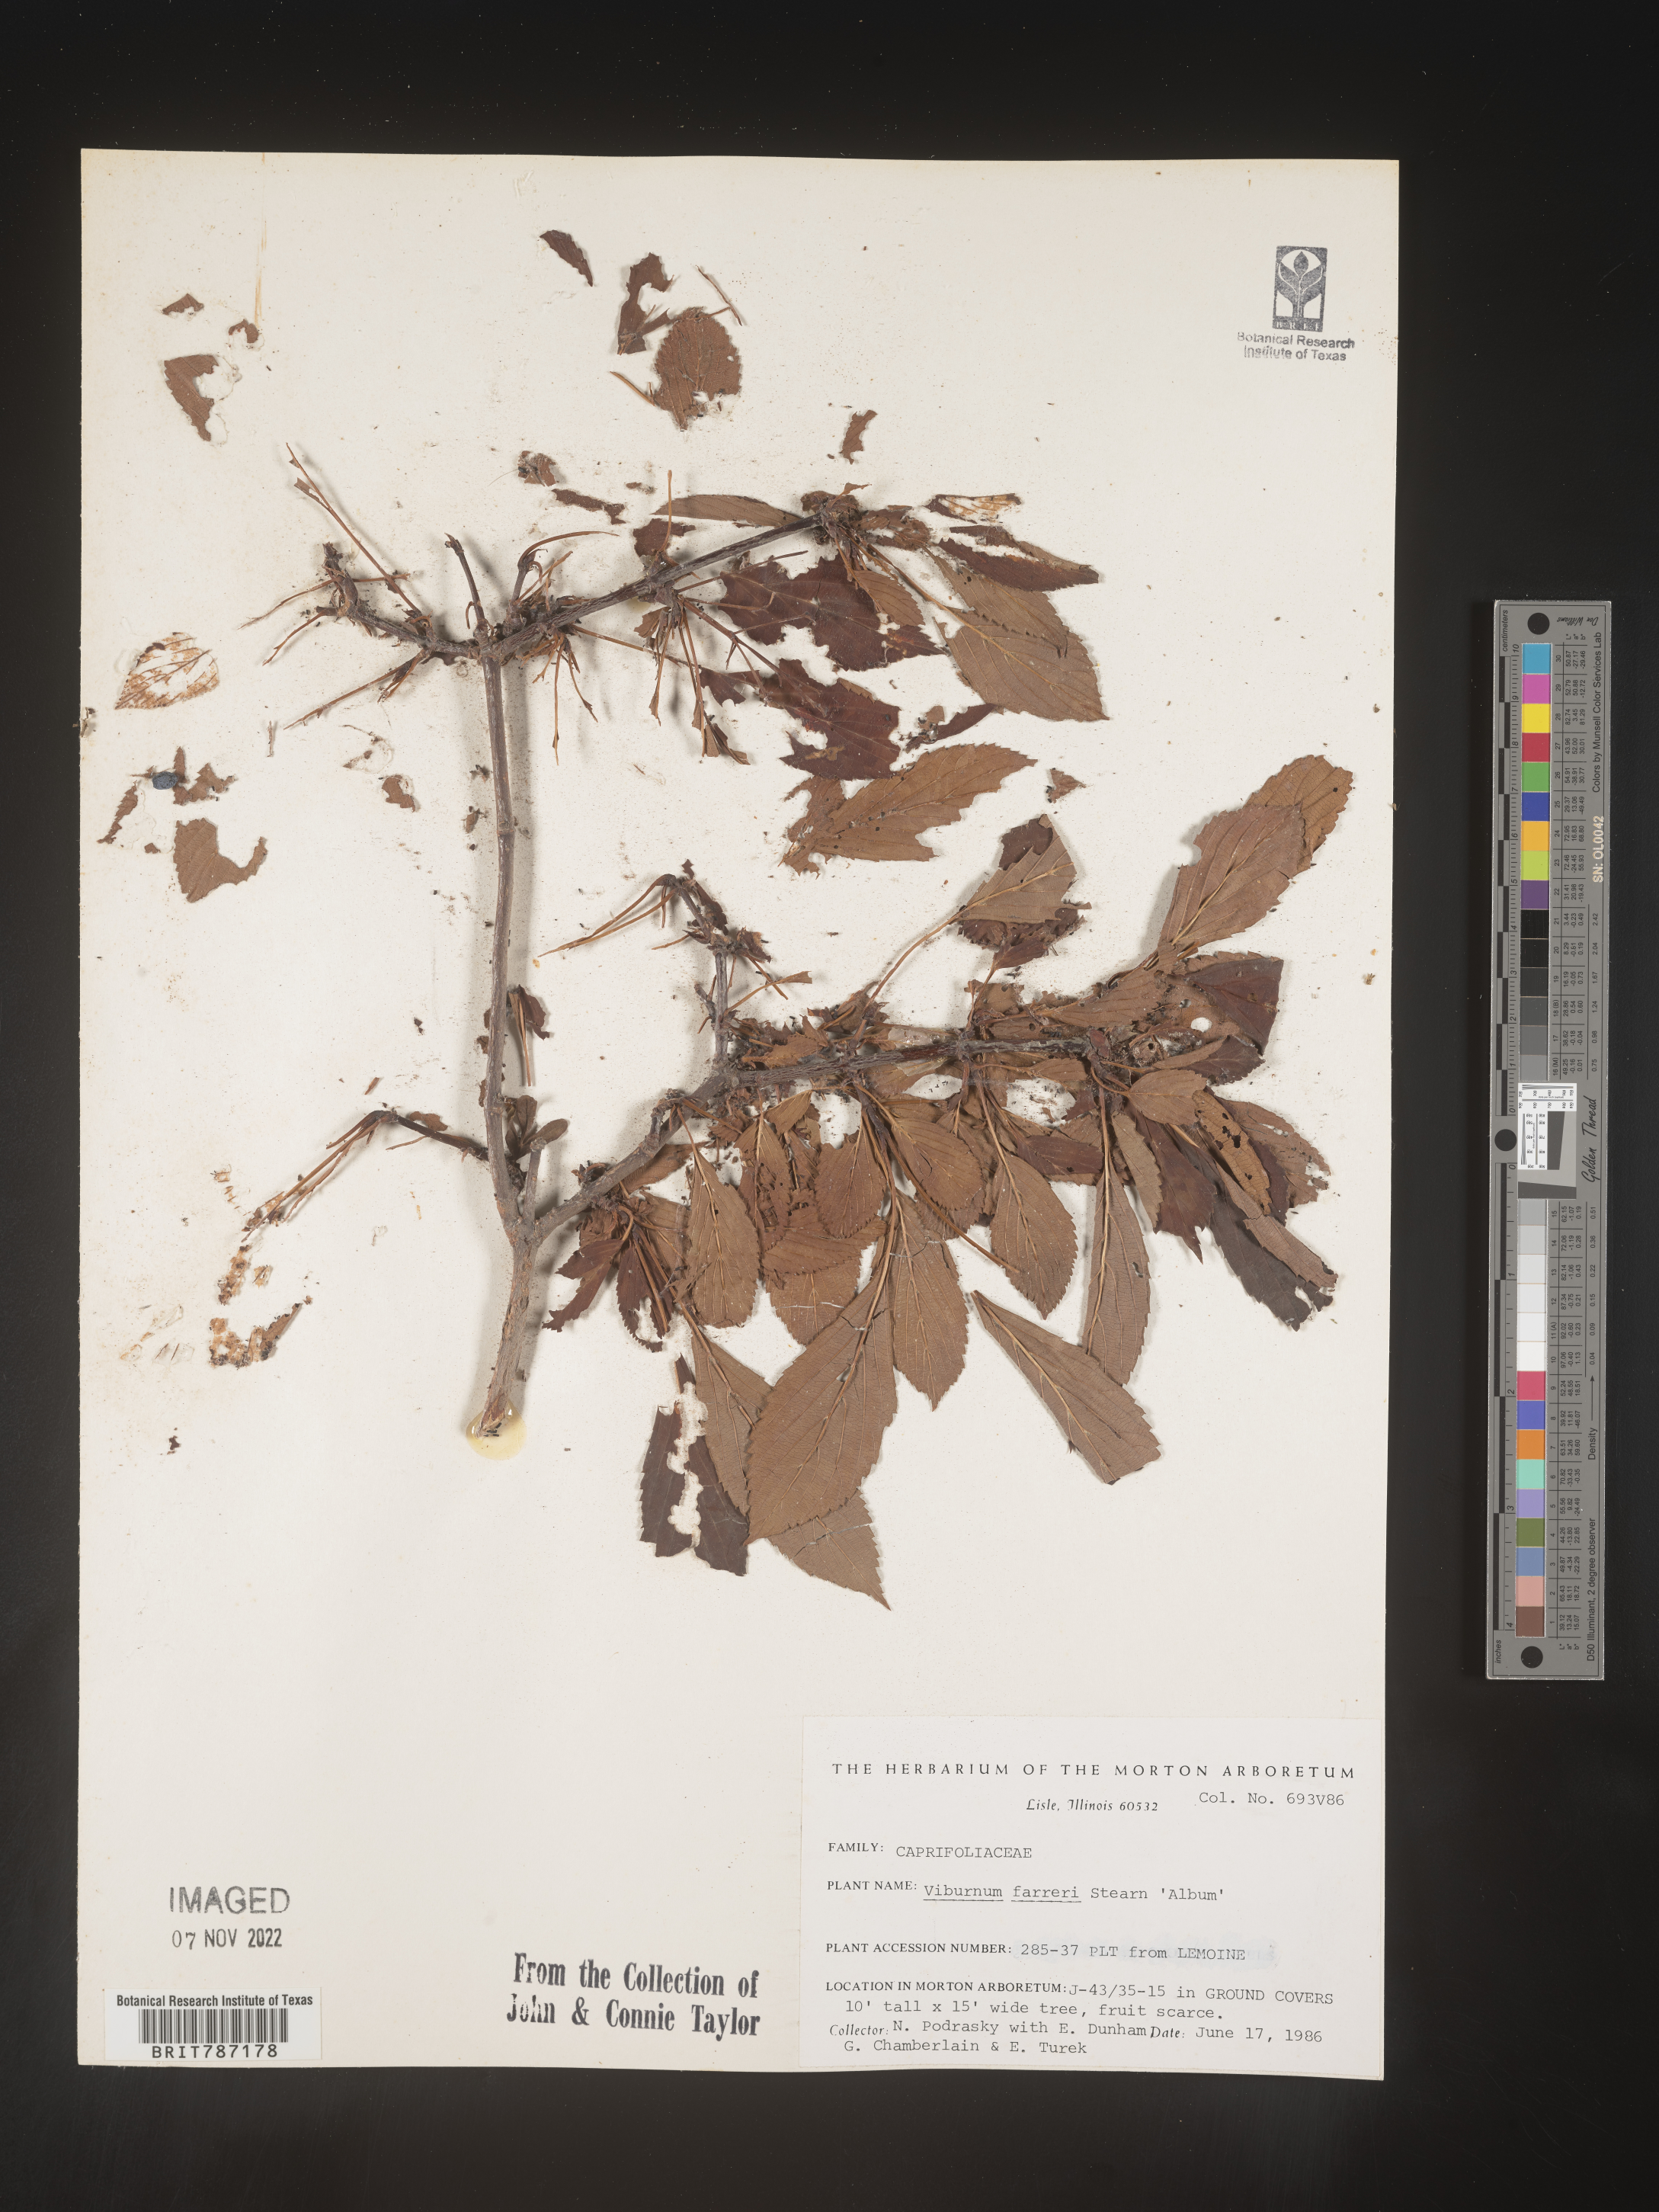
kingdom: Plantae
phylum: Tracheophyta
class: Magnoliopsida
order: Dipsacales
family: Viburnaceae
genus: Viburnum
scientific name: Viburnum
